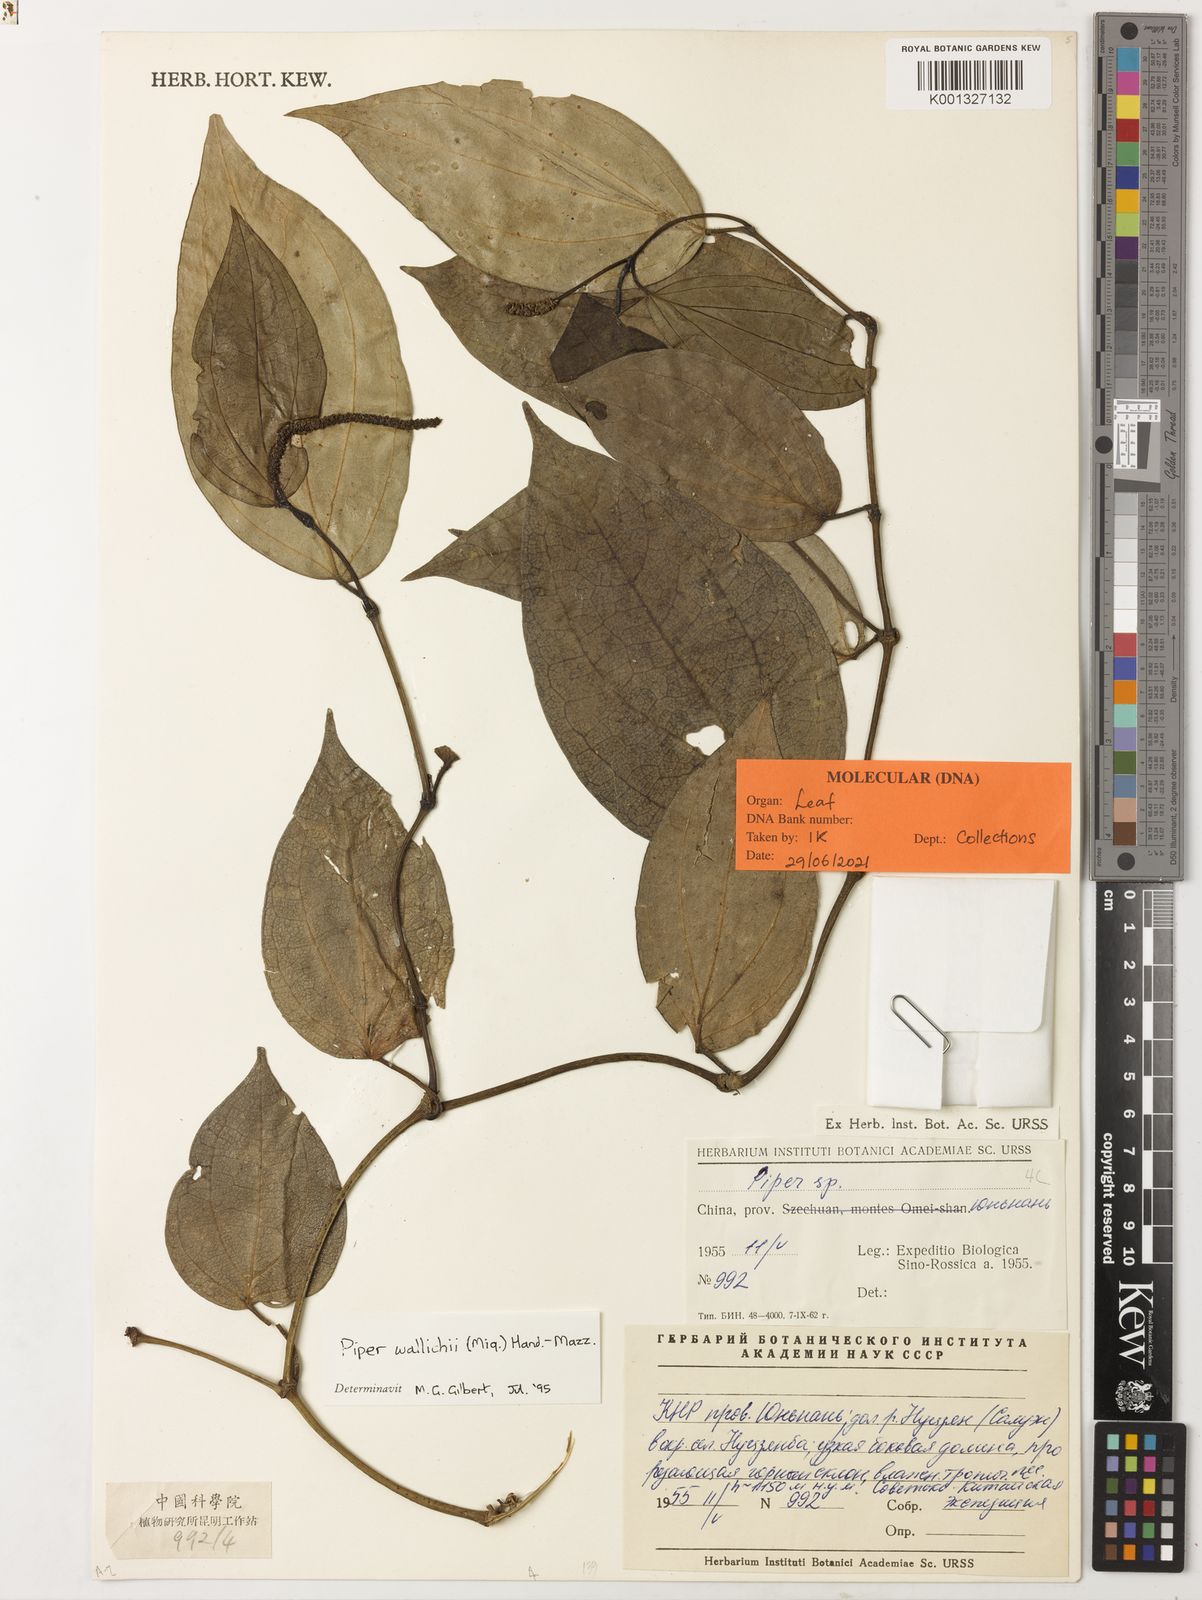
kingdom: Plantae
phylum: Tracheophyta
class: Magnoliopsida
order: Piperales
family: Piperaceae
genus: Piper
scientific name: Piper wallichii
